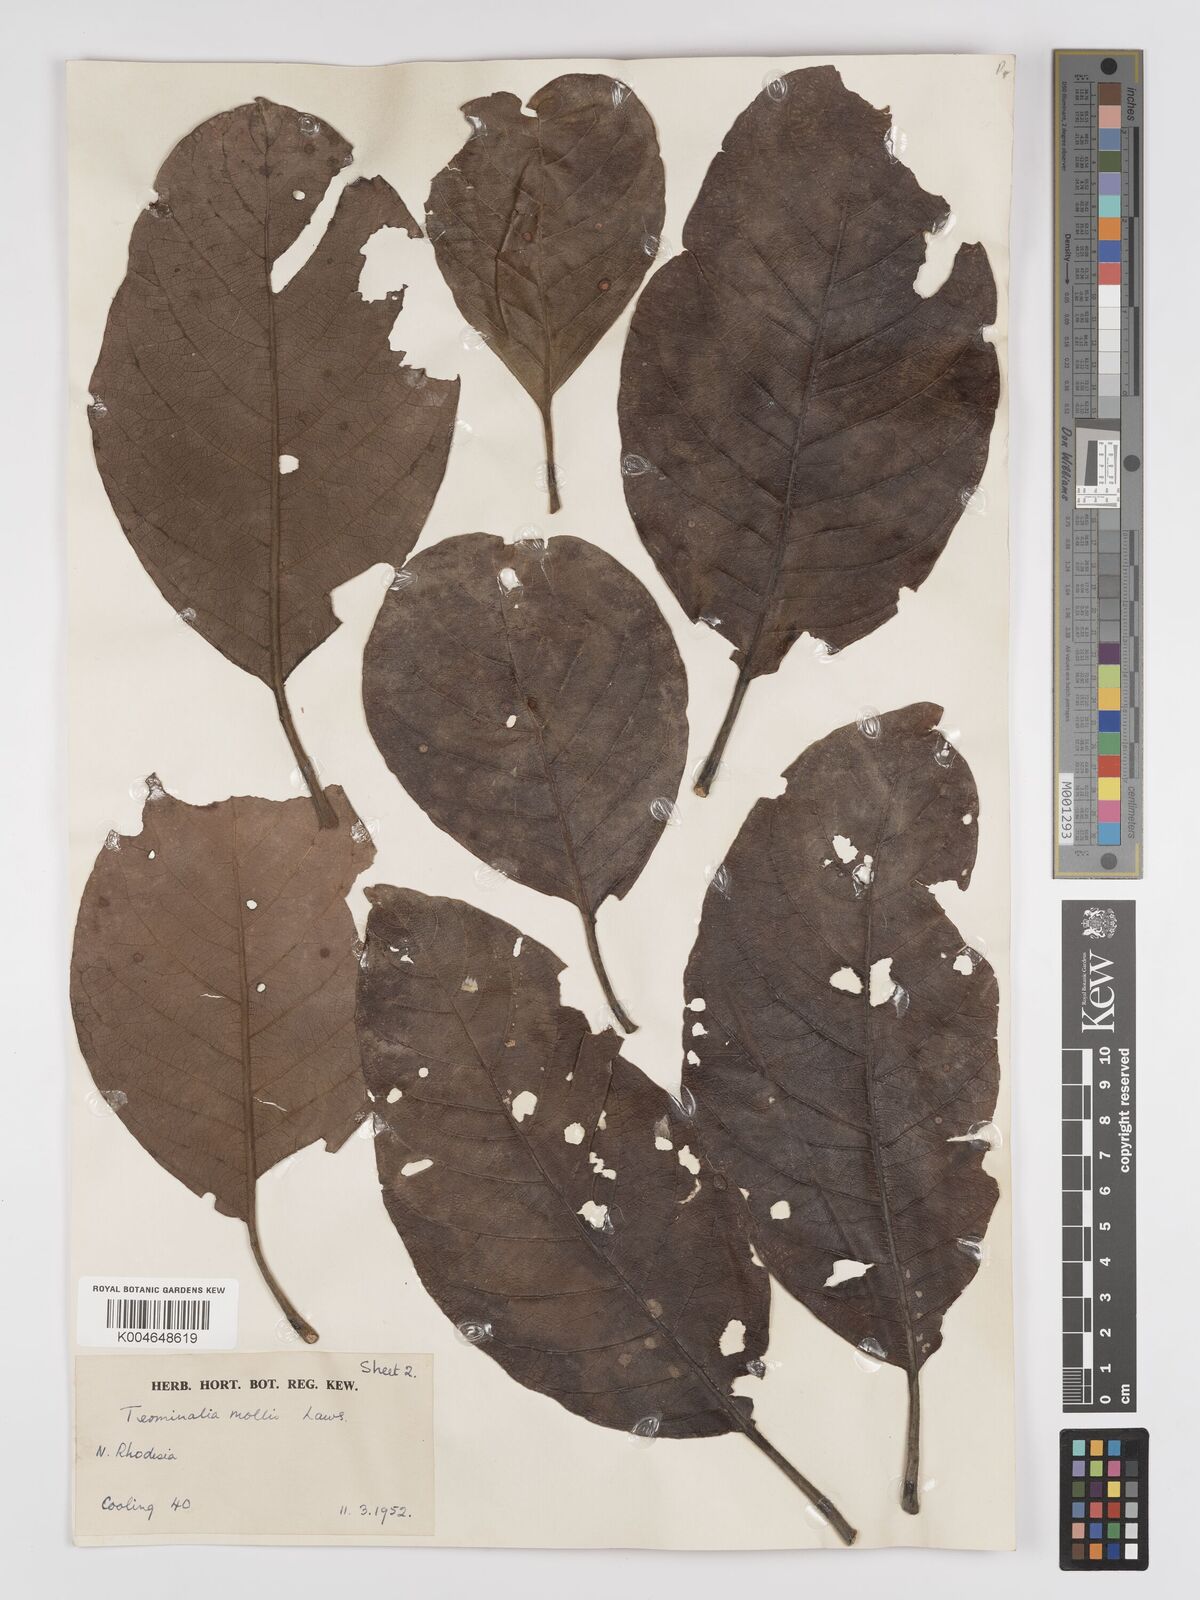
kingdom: Plantae
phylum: Tracheophyta
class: Magnoliopsida
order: Myrtales
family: Combretaceae
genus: Terminalia
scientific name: Terminalia
